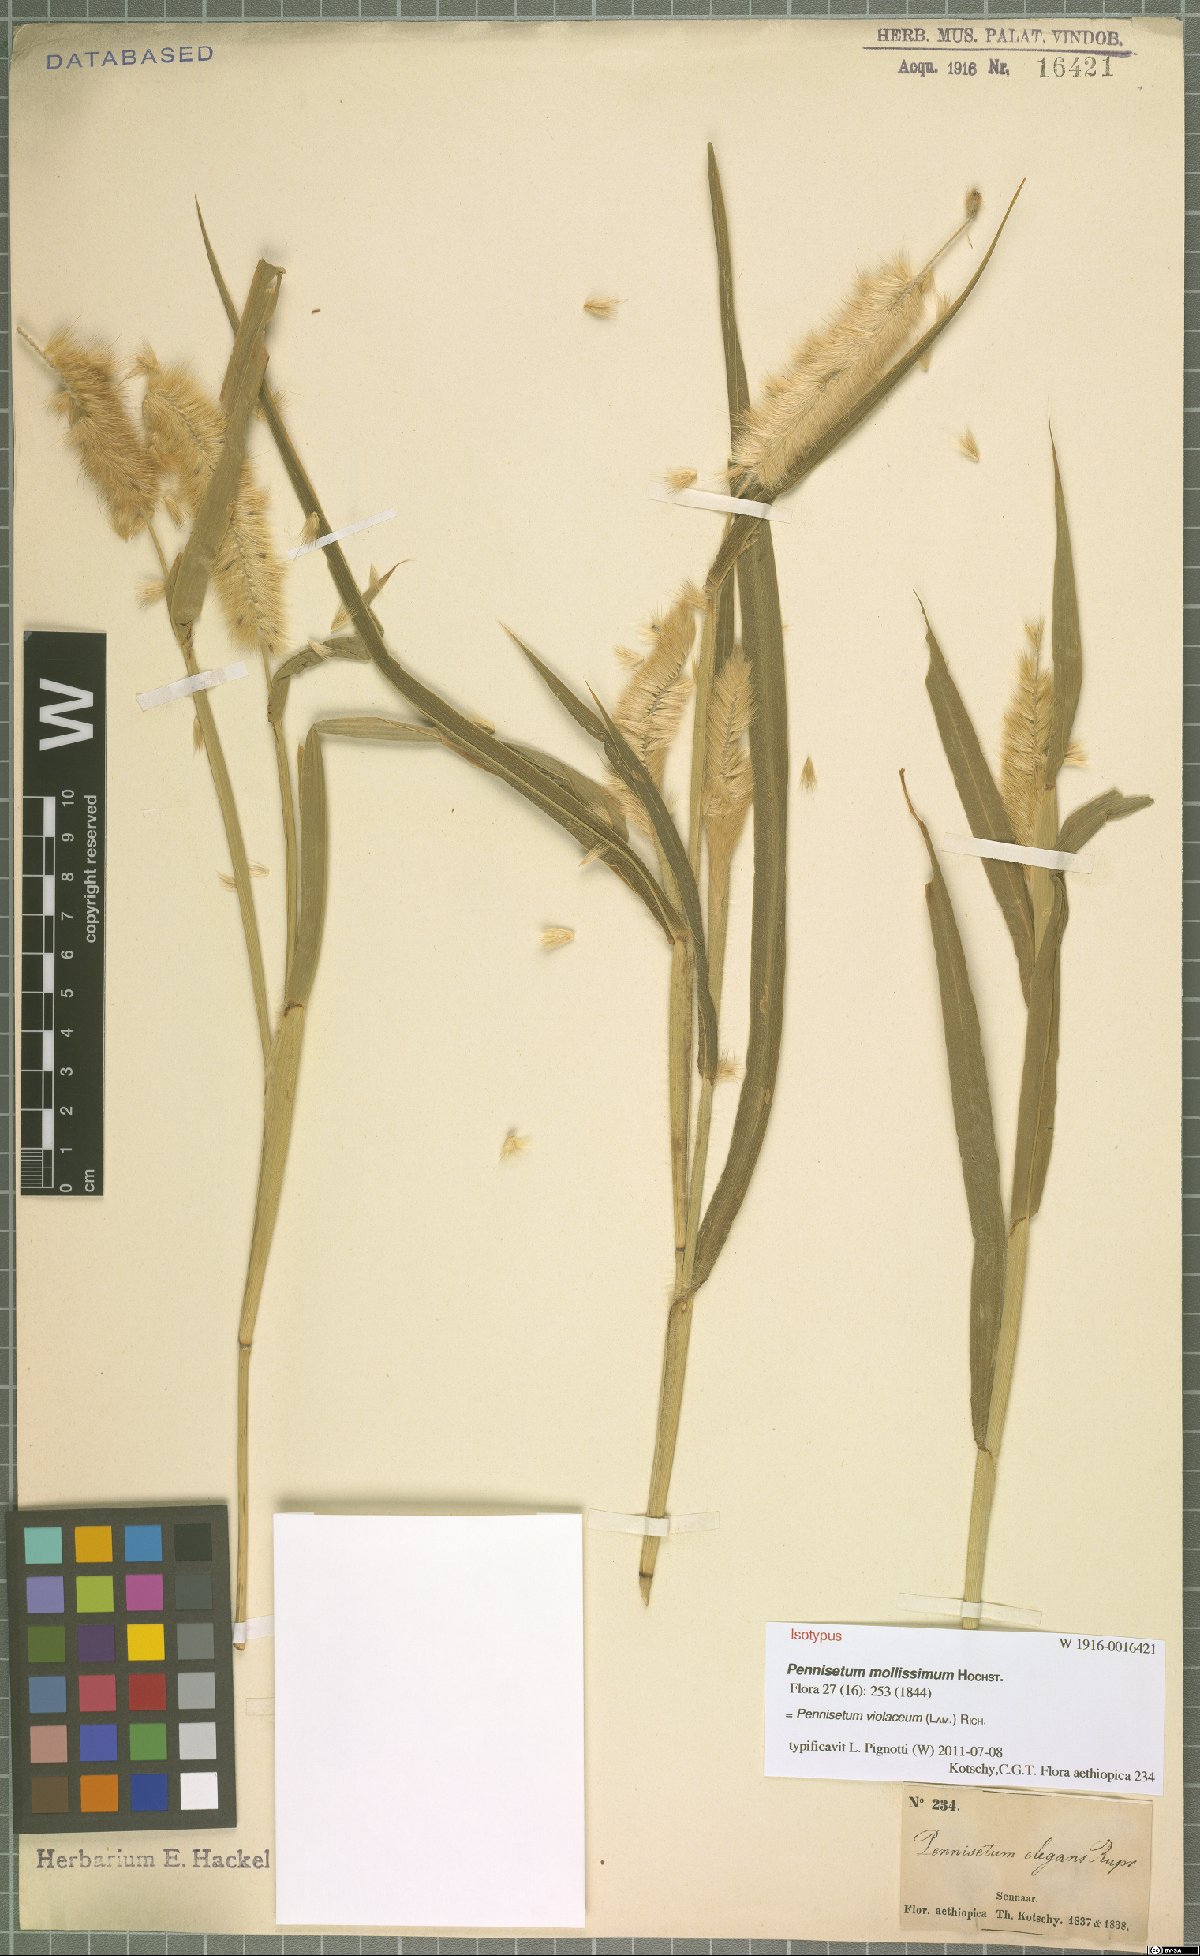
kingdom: Plantae
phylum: Tracheophyta
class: Liliopsida
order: Poales
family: Poaceae
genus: Cenchrus
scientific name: Cenchrus violaceus
